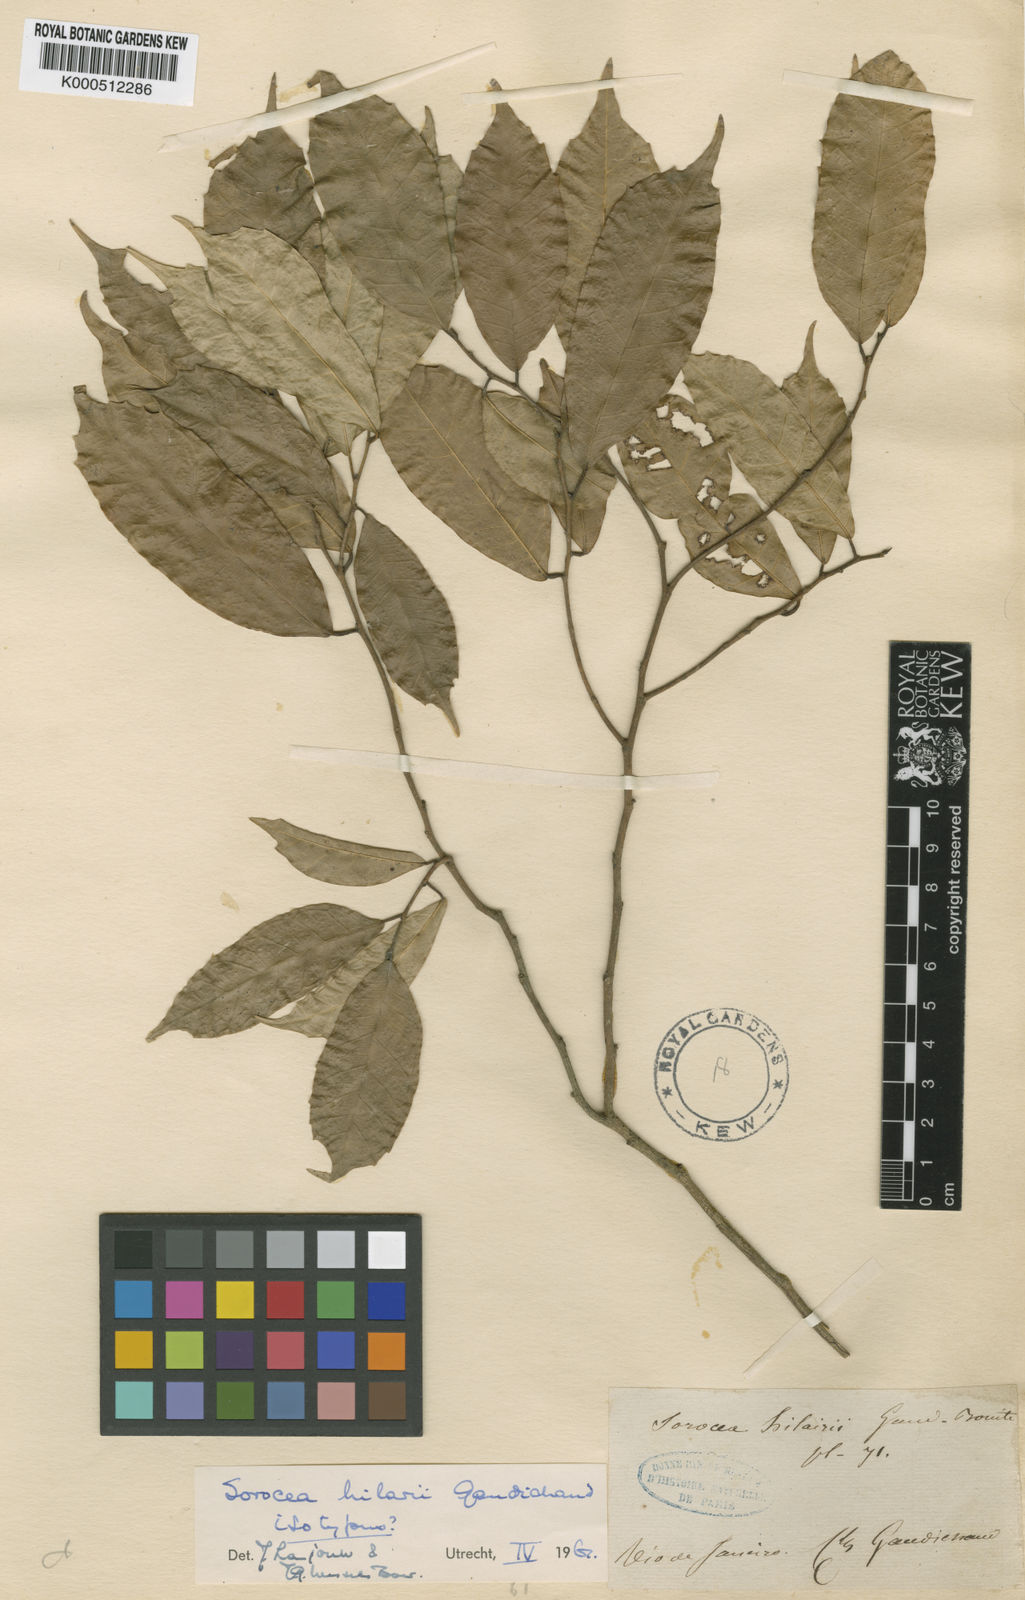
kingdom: Plantae
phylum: Tracheophyta
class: Magnoliopsida
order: Rosales
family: Moraceae
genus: Sorocea
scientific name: Sorocea hilarii
